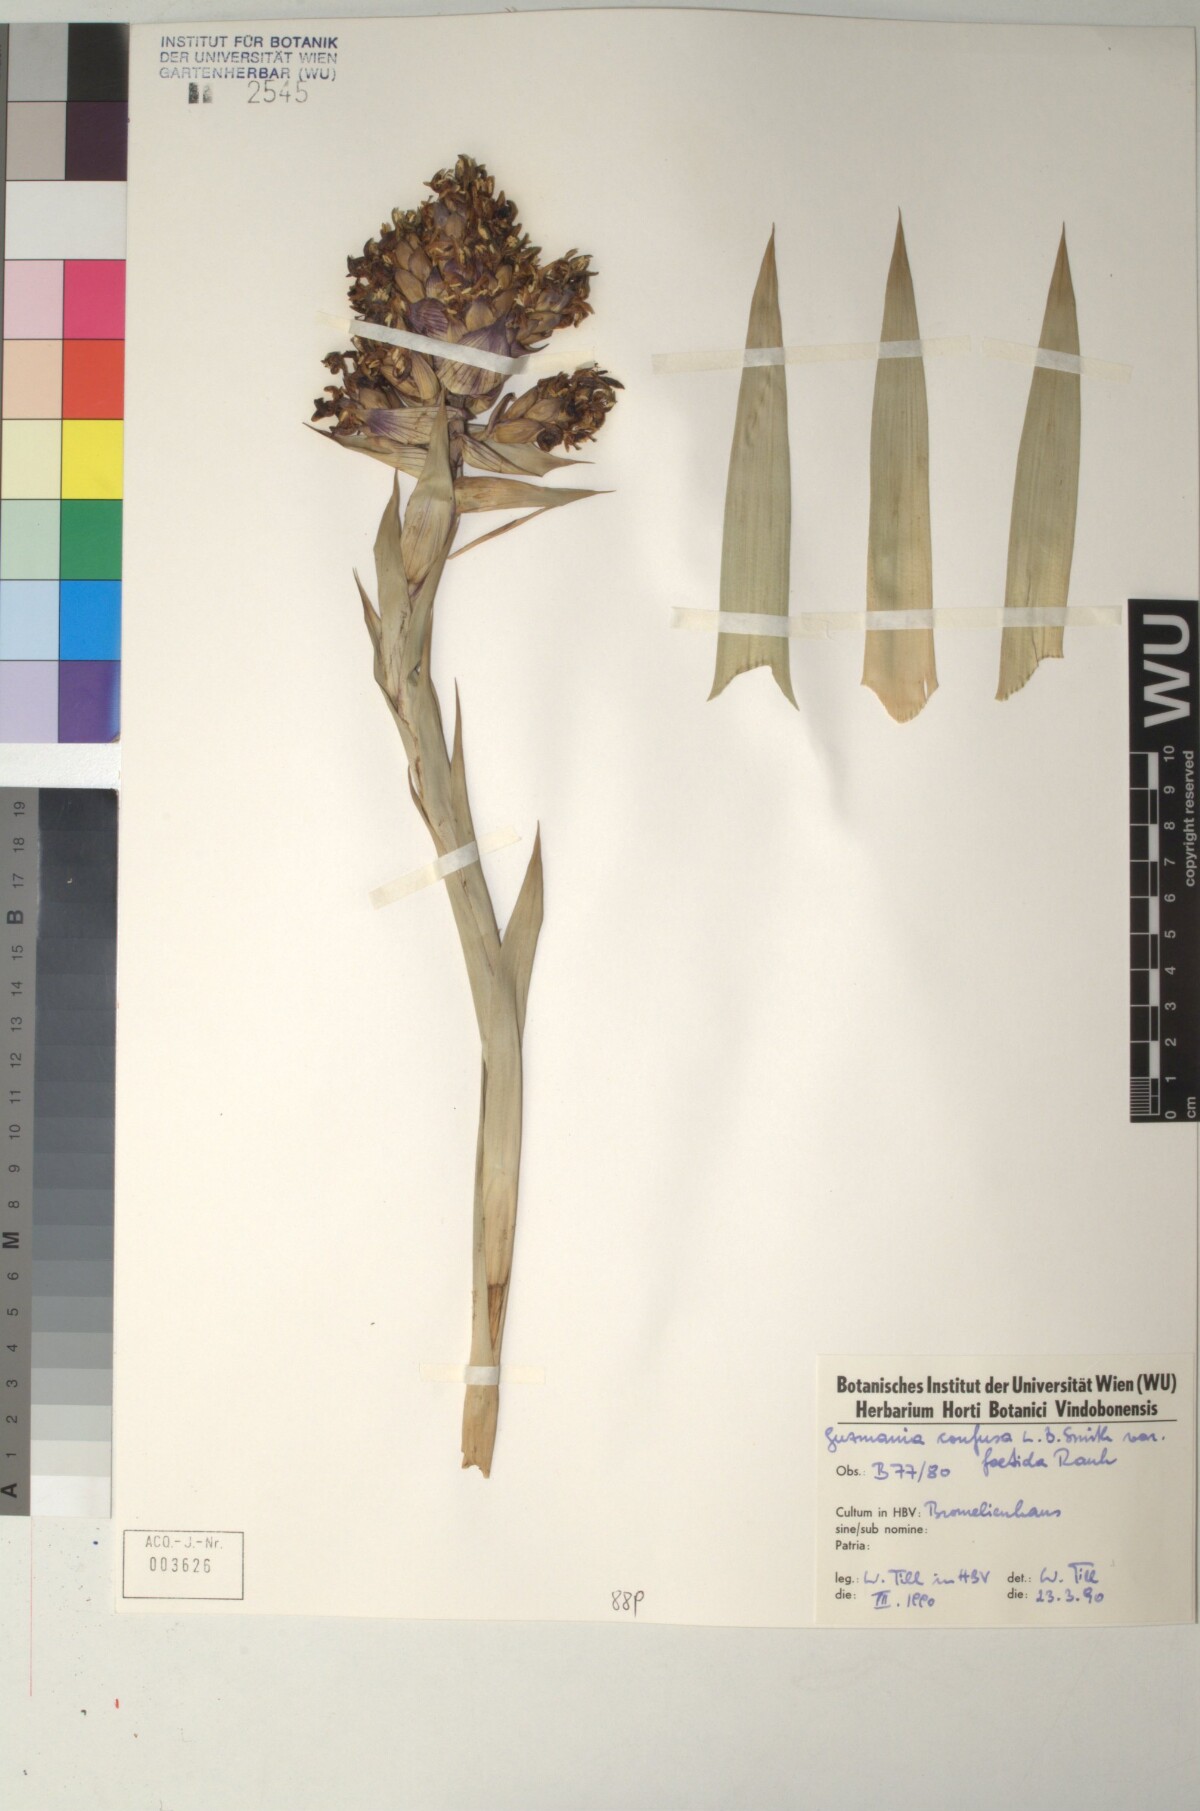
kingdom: Plantae
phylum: Tracheophyta
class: Liliopsida
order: Poales
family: Bromeliaceae
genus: Guzmania
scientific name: Guzmania confusa
